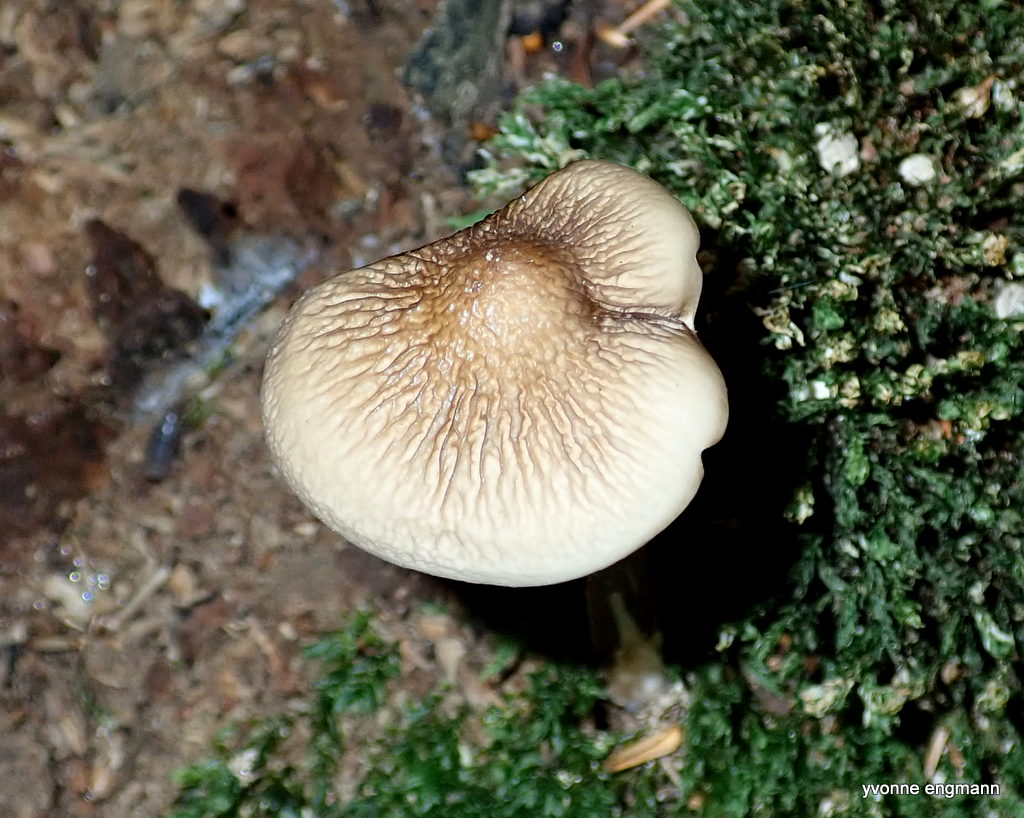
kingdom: Fungi
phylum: Basidiomycota
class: Agaricomycetes
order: Agaricales
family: Physalacriaceae
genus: Hymenopellis
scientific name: Hymenopellis radicata
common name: almindelig pælerodshat
